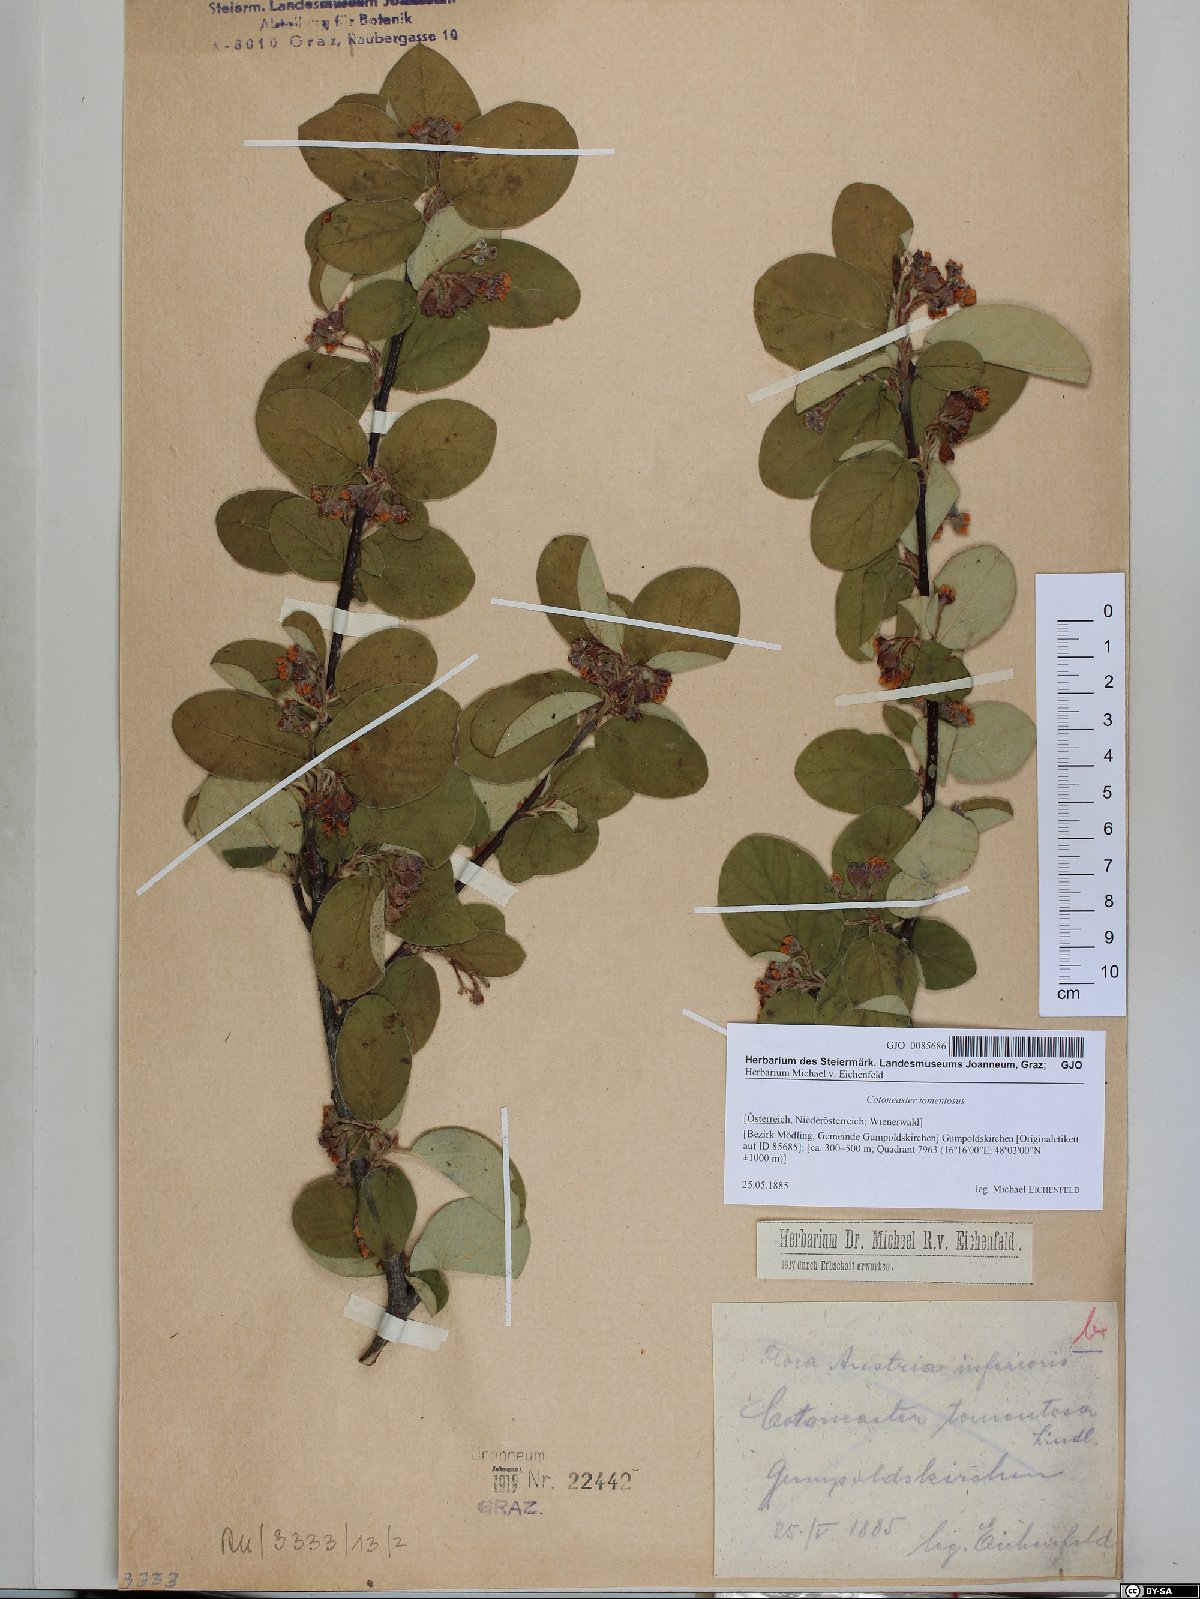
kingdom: Plantae
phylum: Tracheophyta
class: Magnoliopsida
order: Rosales
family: Rosaceae
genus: Cotoneaster
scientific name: Cotoneaster tomentosus
